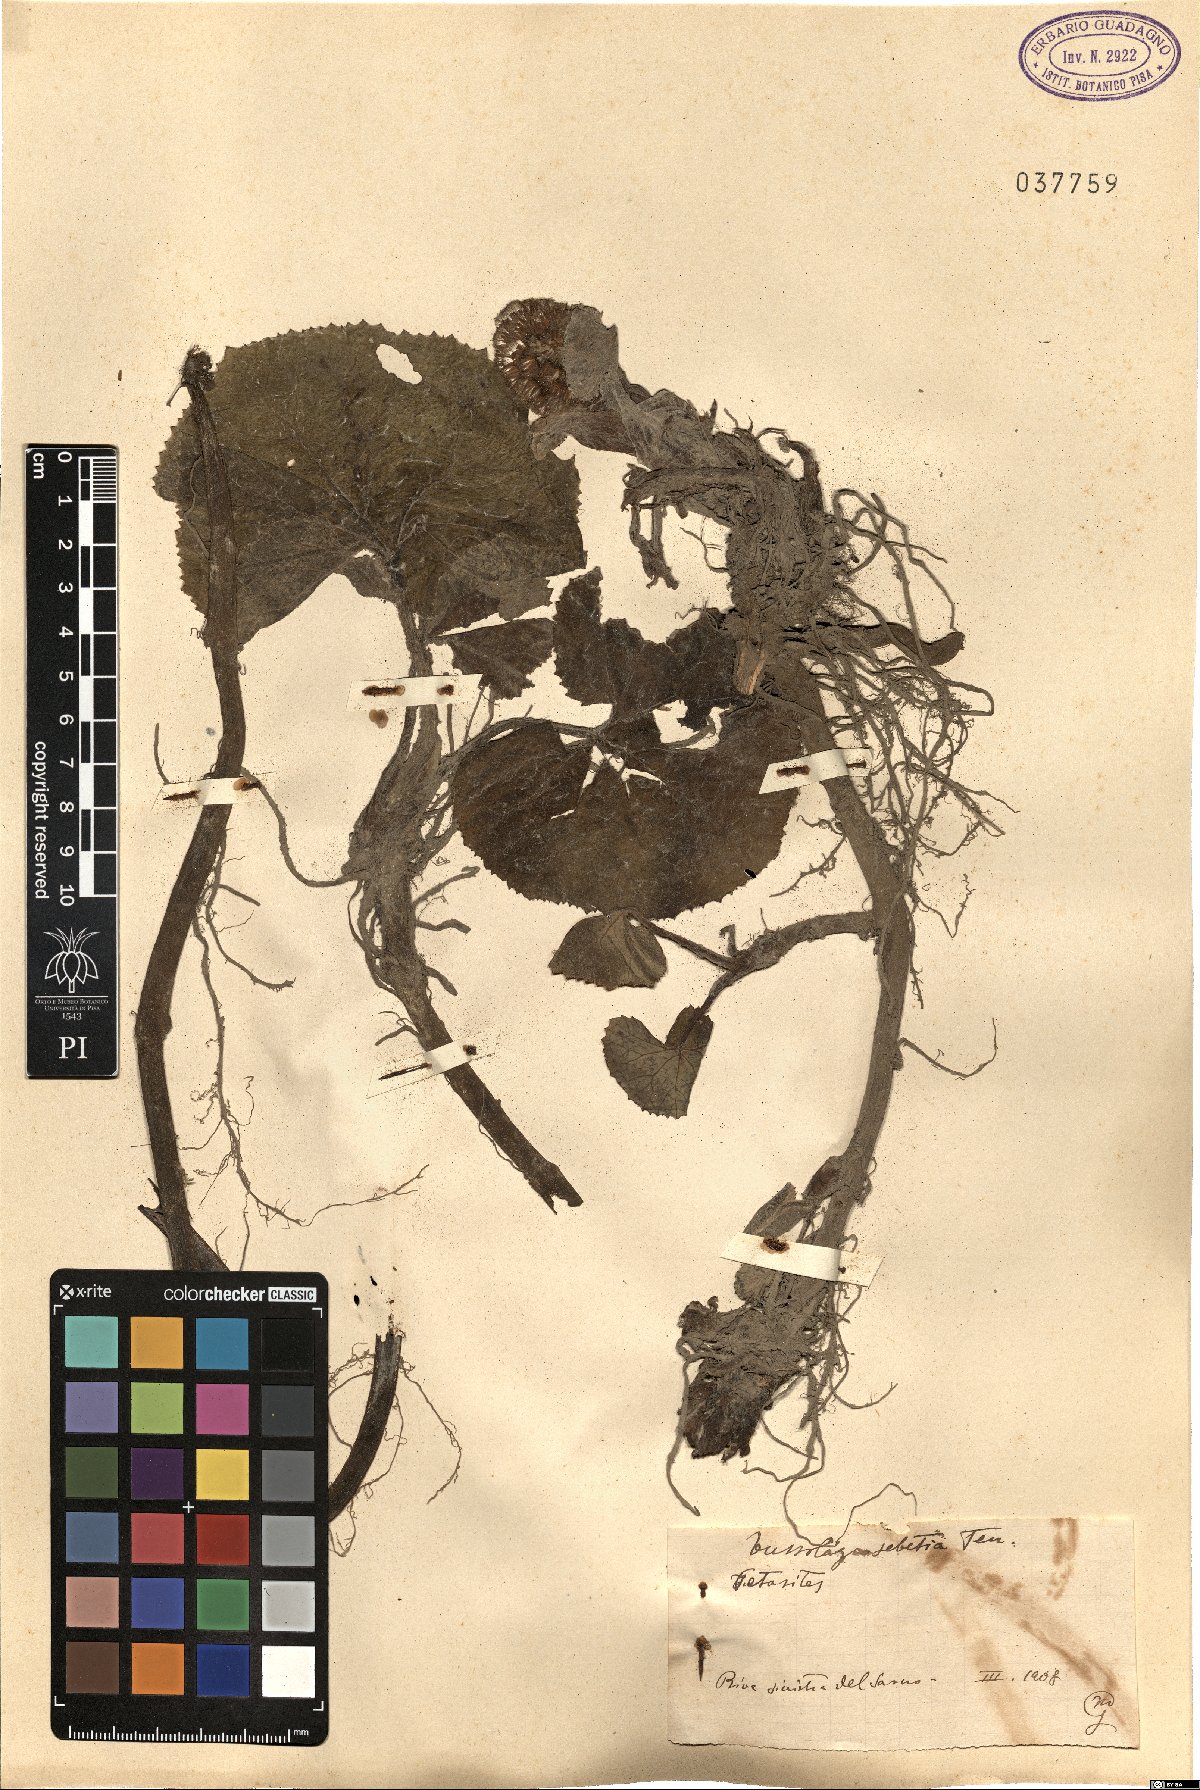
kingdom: Plantae
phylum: Tracheophyta
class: Magnoliopsida
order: Asterales
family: Asteraceae
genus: Petasites
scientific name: Petasites
